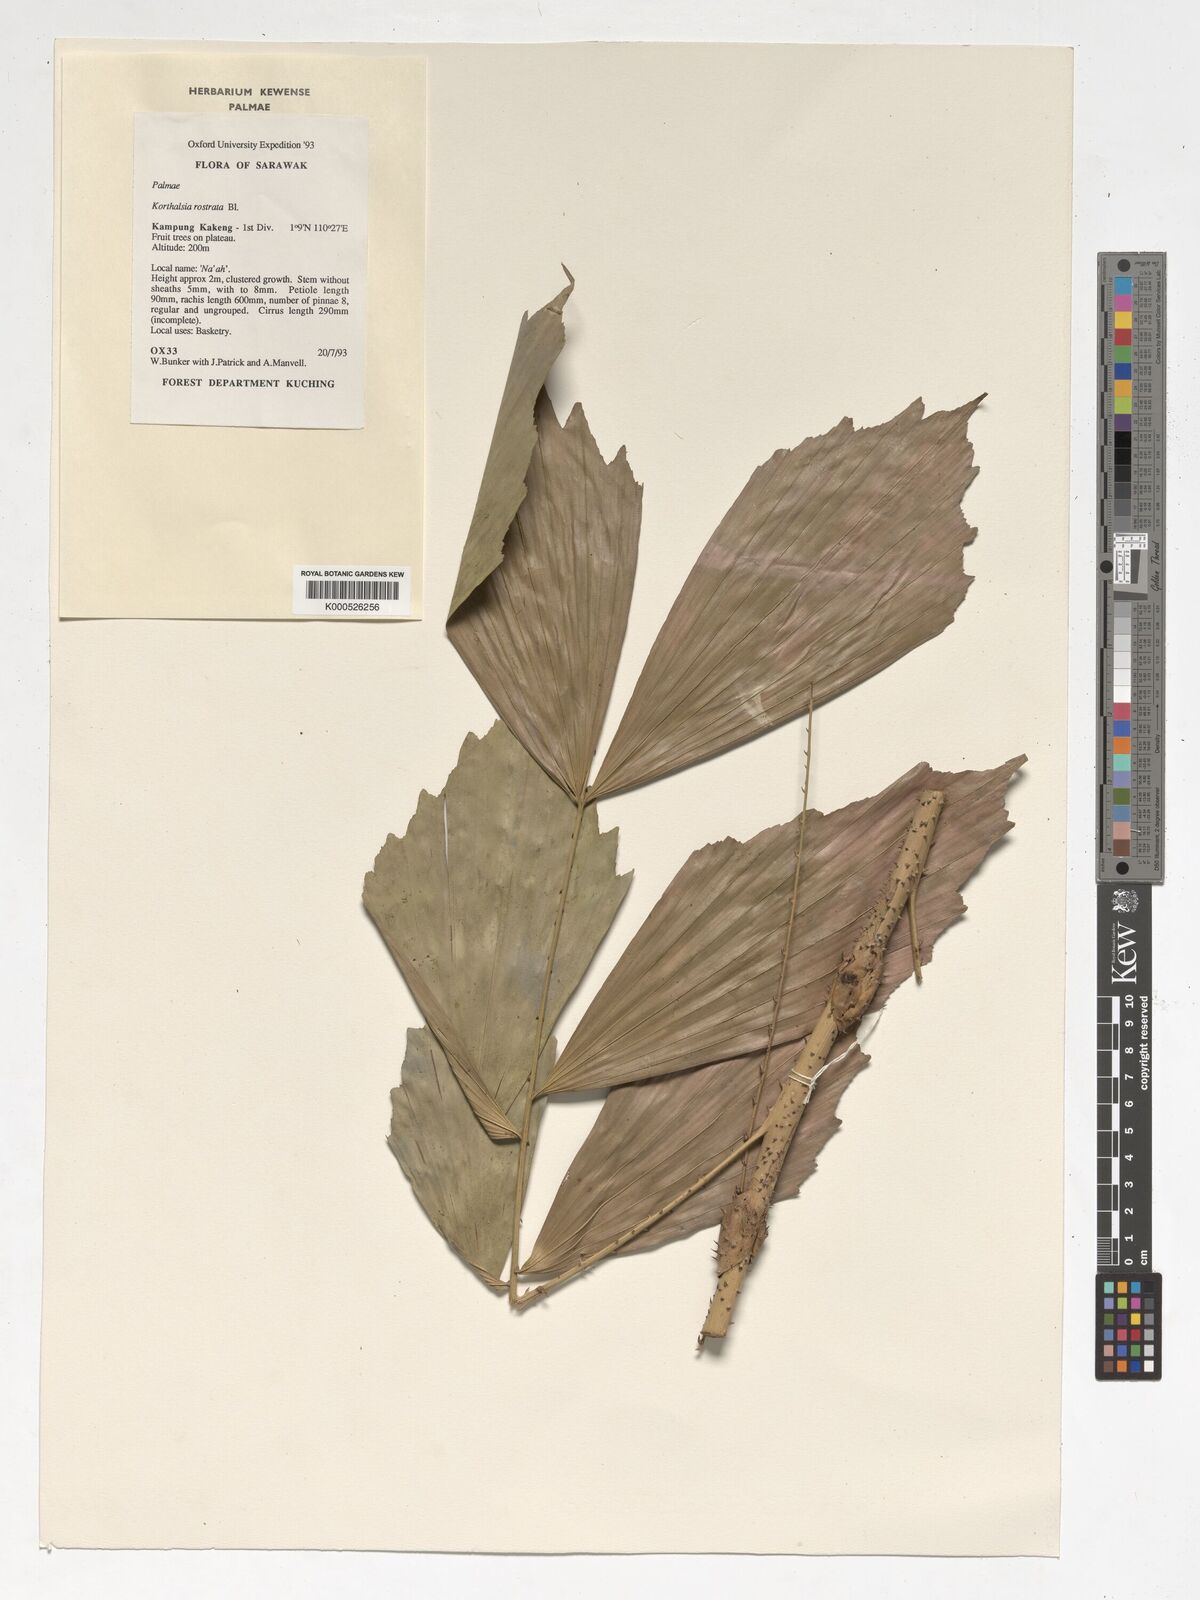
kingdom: Plantae
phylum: Tracheophyta
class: Liliopsida
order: Arecales
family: Arecaceae
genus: Korthalsia
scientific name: Korthalsia rostrata
